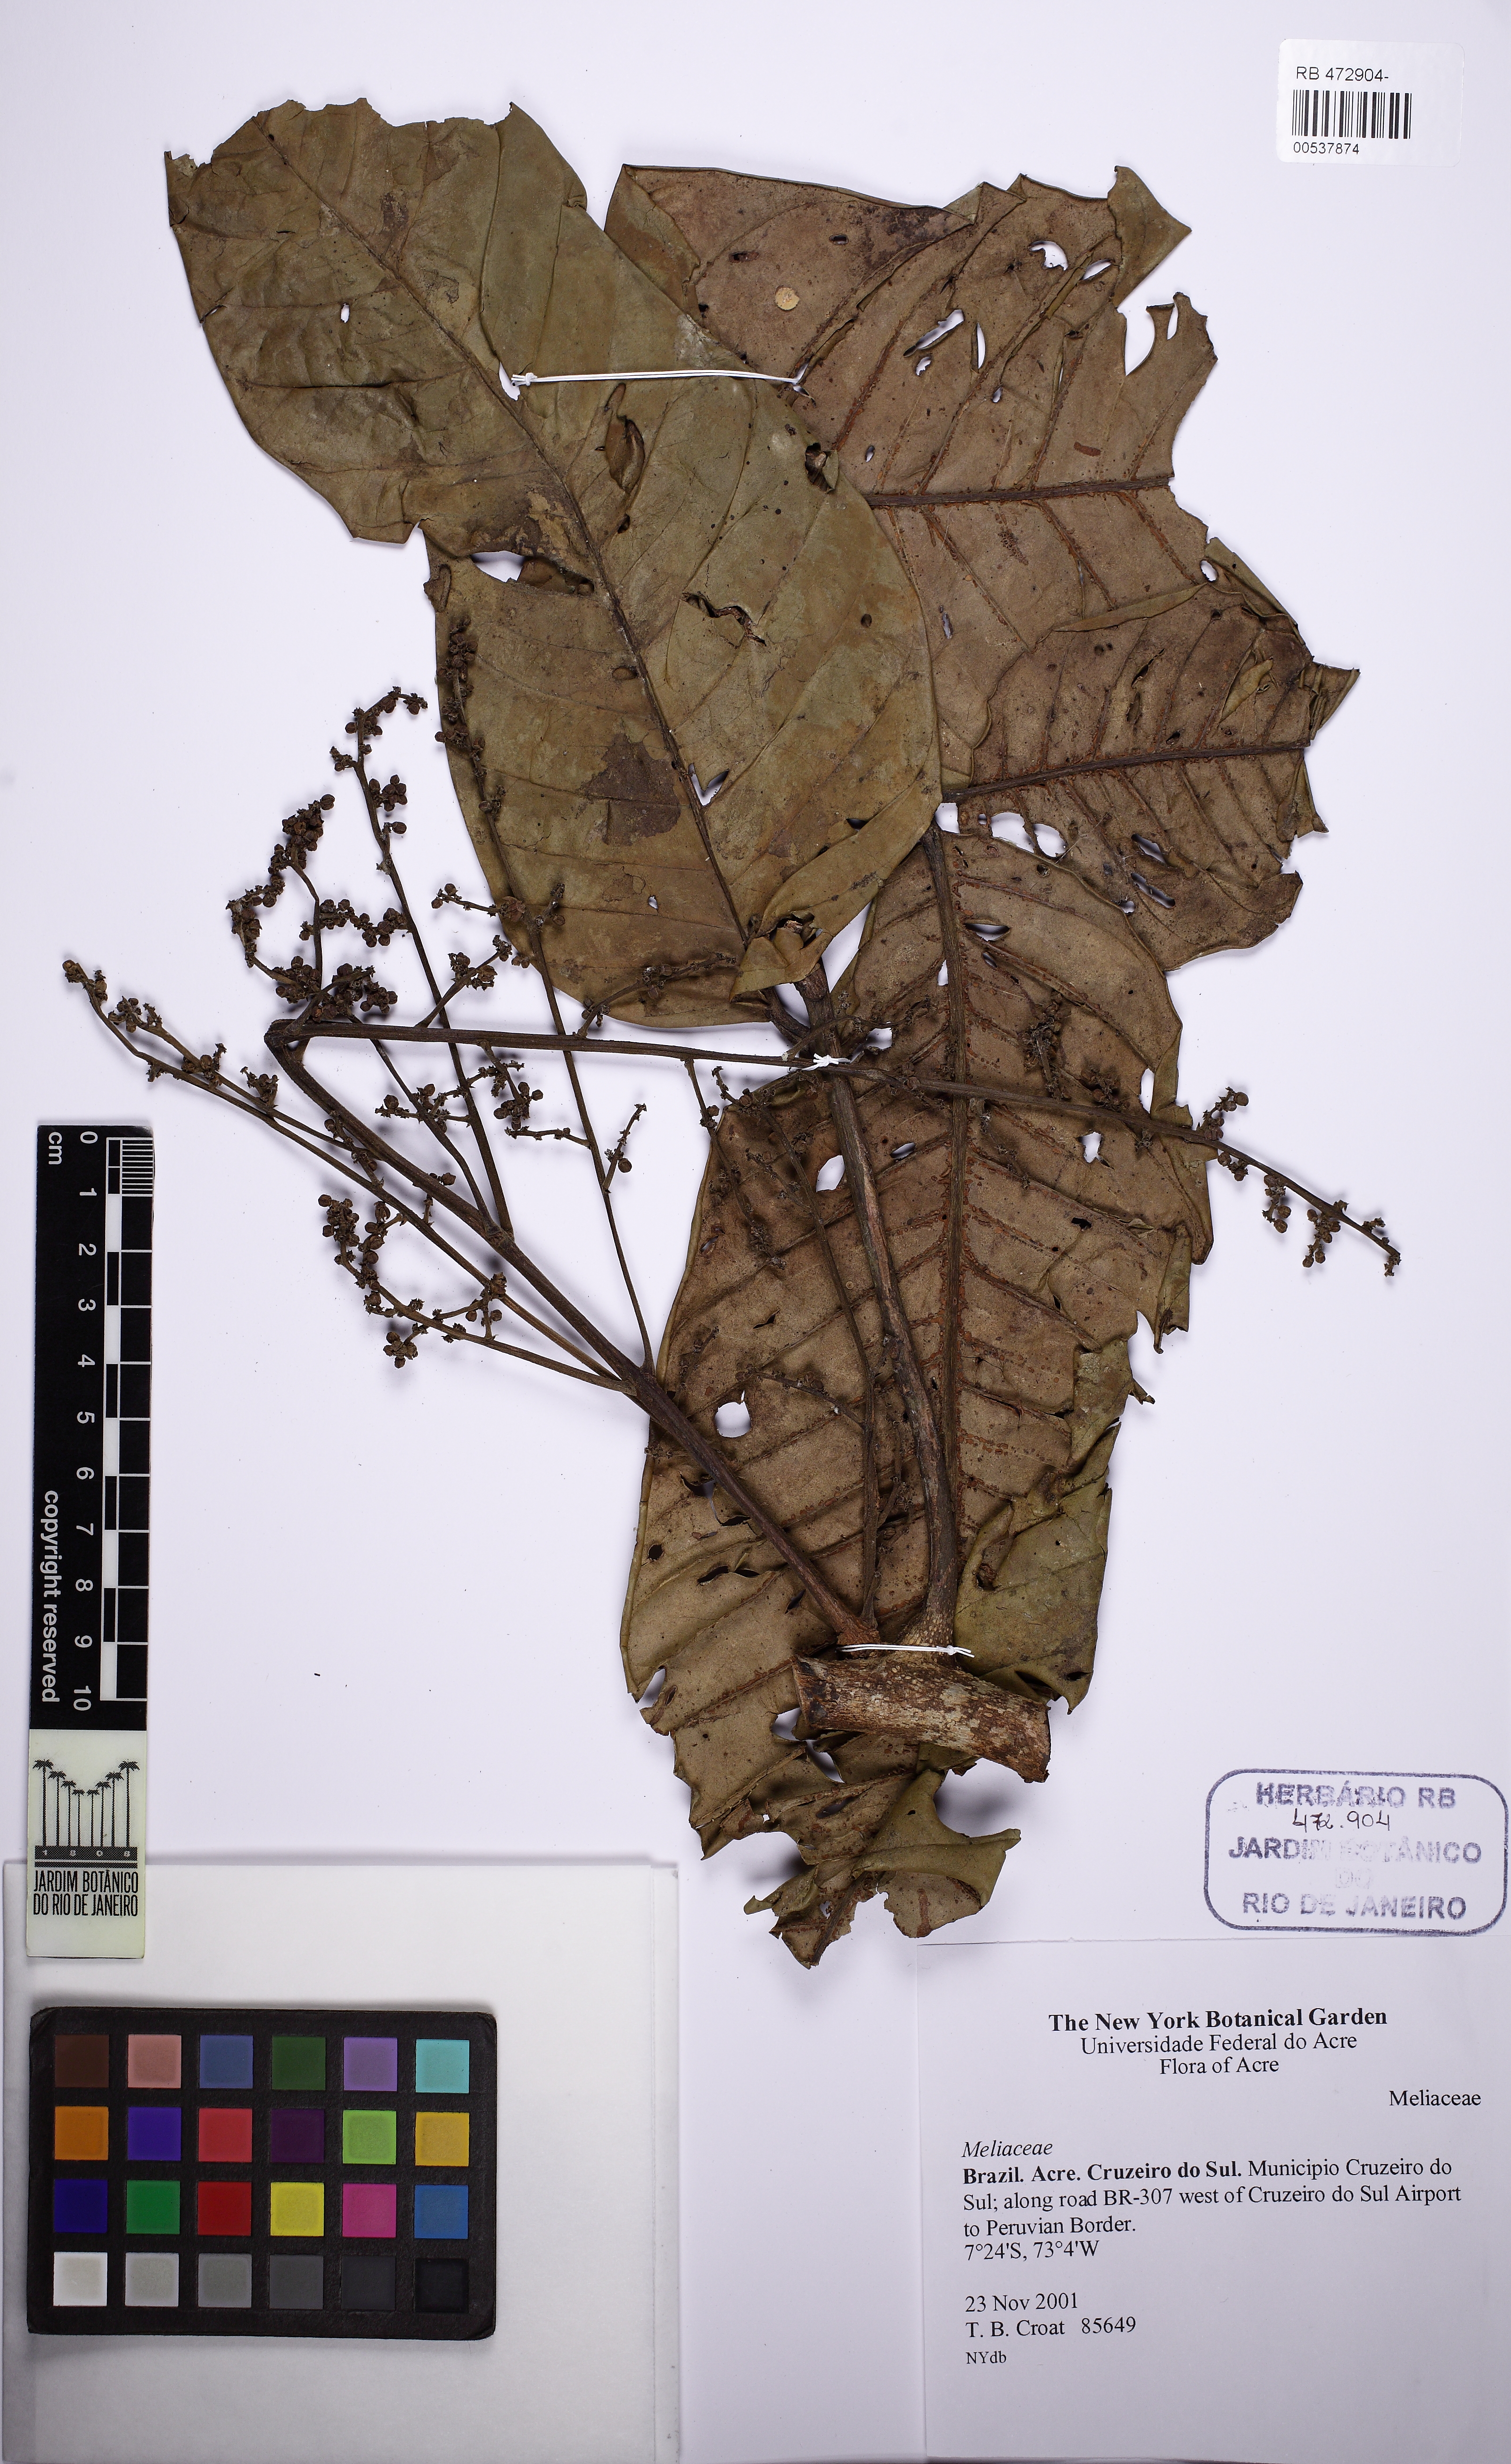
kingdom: Plantae
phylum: Tracheophyta
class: Magnoliopsida
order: Sapindales
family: Meliaceae
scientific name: Meliaceae
